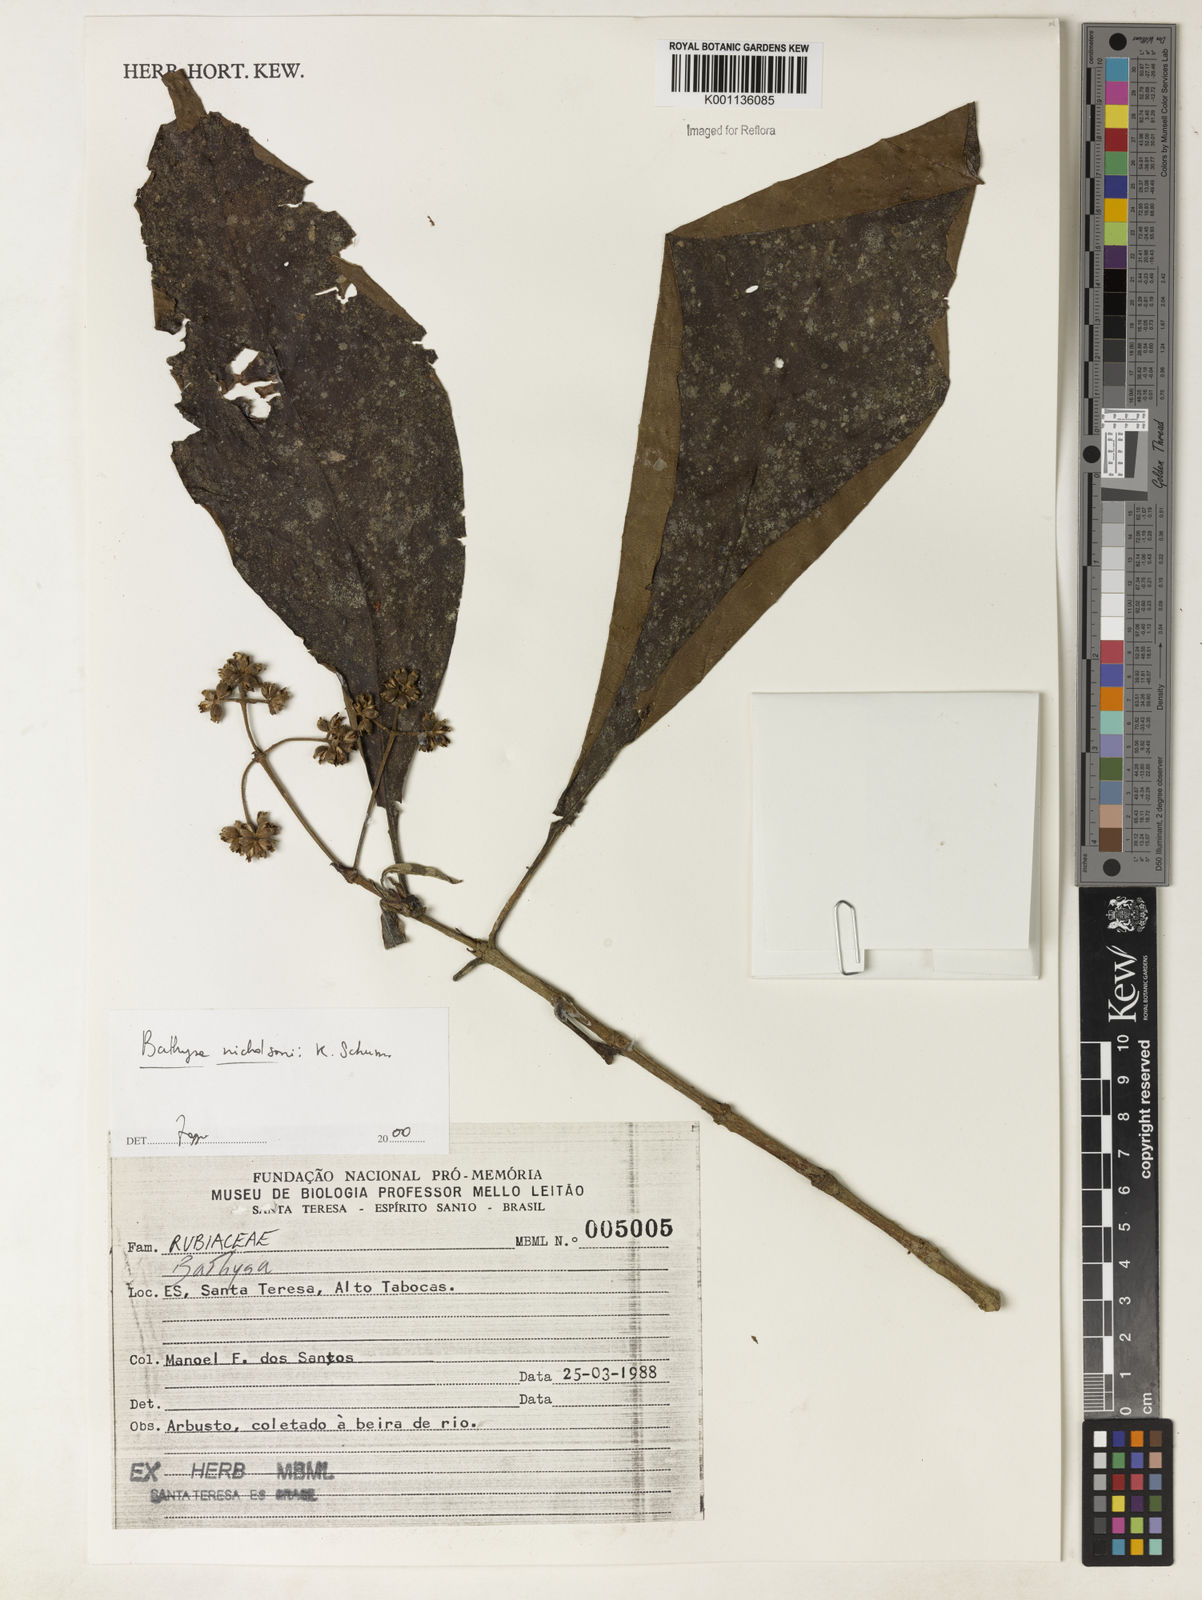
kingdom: Plantae
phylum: Tracheophyta
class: Magnoliopsida
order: Gentianales
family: Rubiaceae
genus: Bathysa
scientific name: Bathysa nicholsonii
